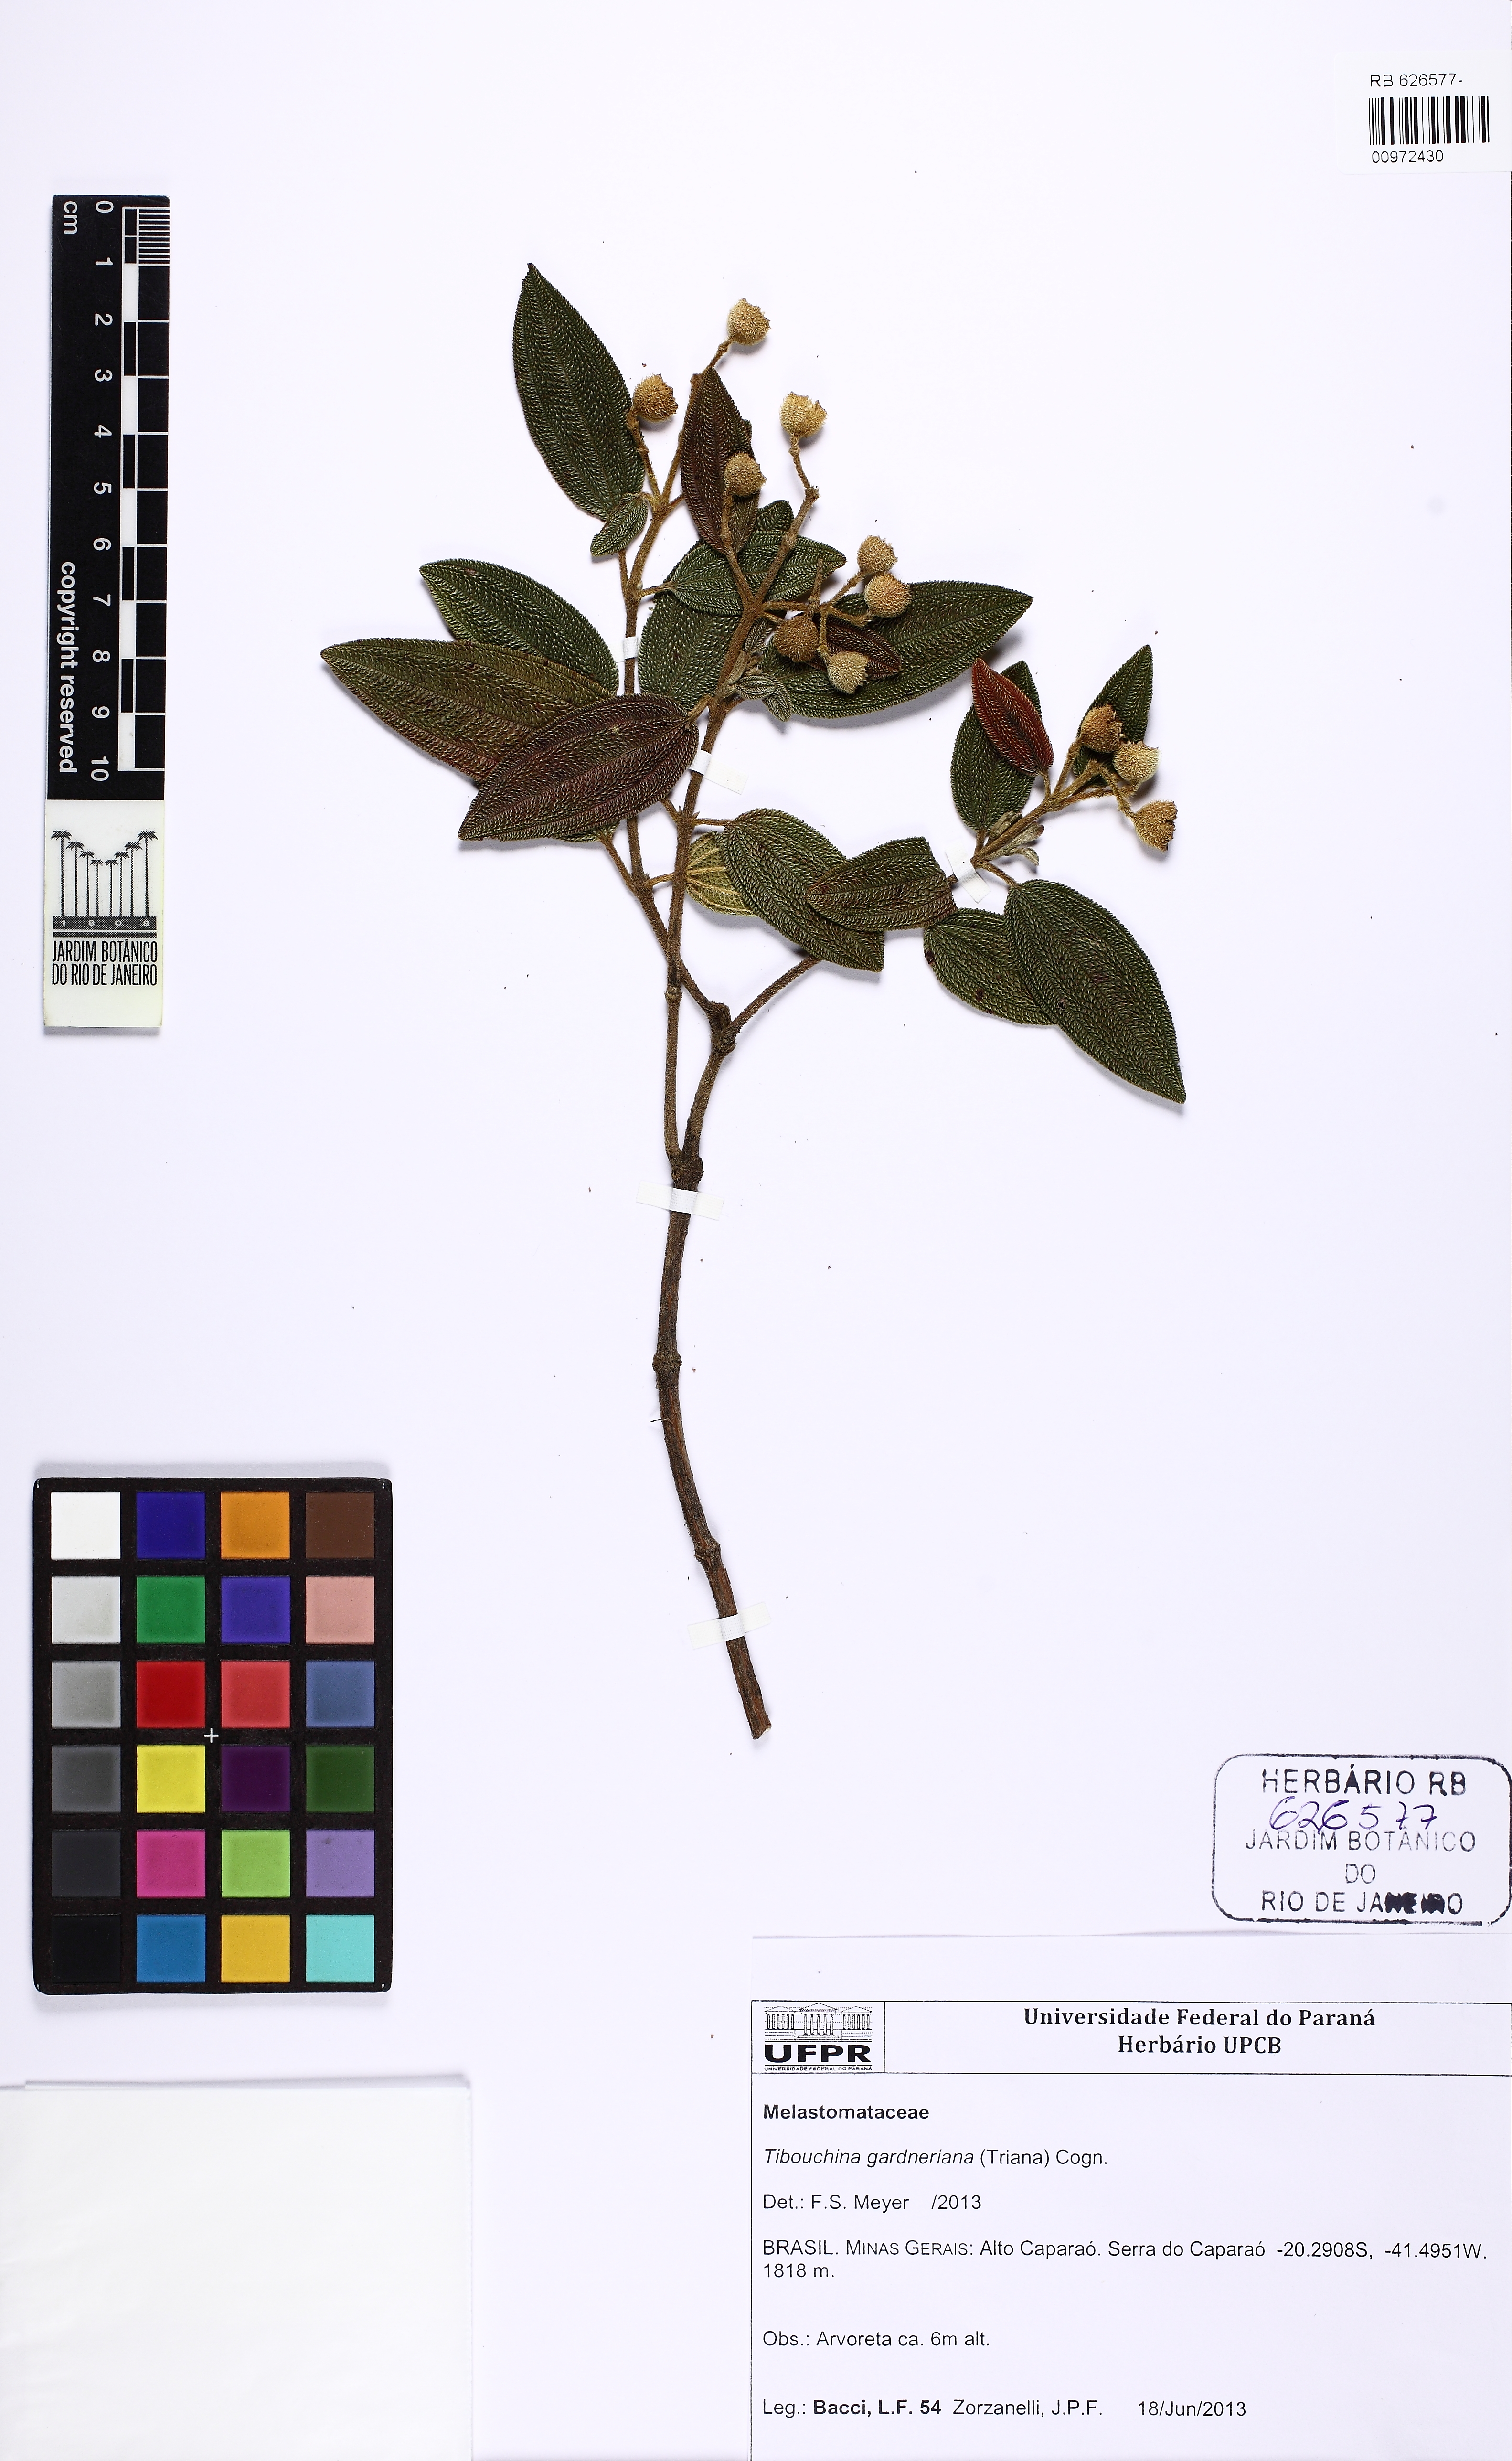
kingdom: Plantae
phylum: Tracheophyta
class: Magnoliopsida
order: Myrtales
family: Melastomataceae
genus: Pleroma
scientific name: Pleroma echinatum
